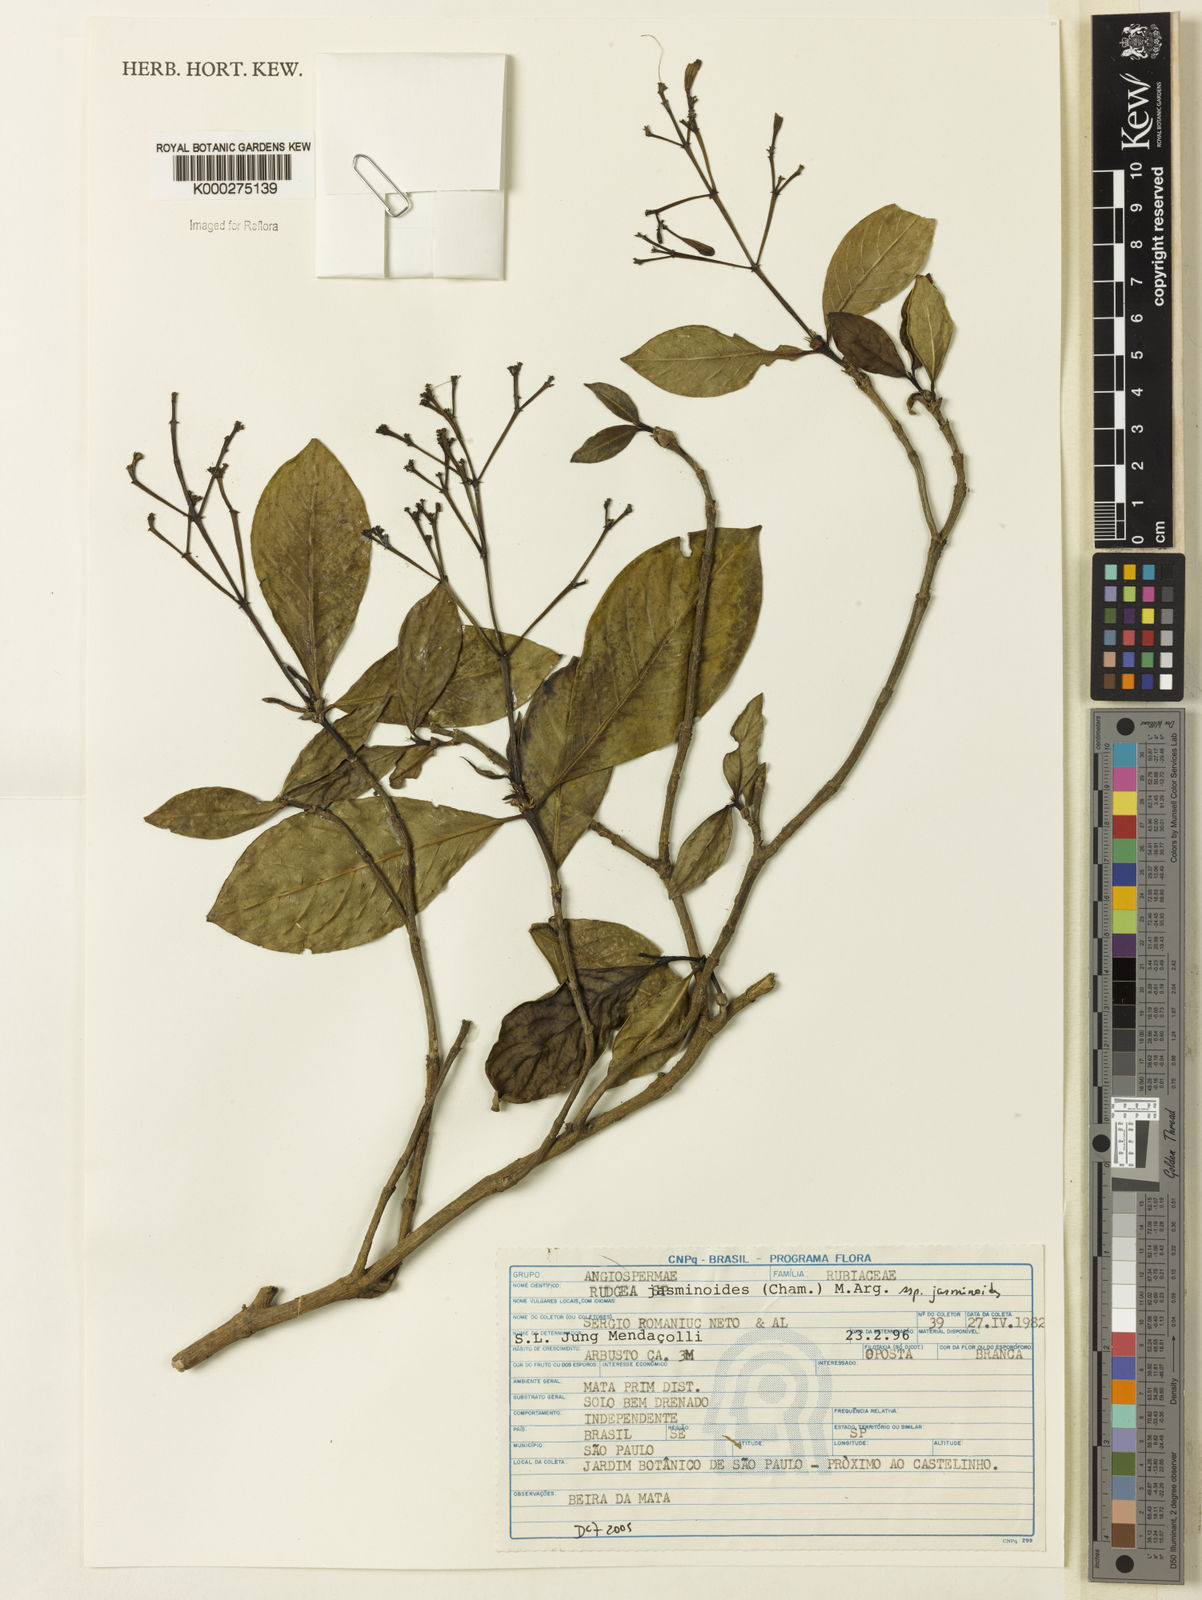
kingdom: Plantae
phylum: Tracheophyta
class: Magnoliopsida
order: Gentianales
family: Rubiaceae
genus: Rudgea
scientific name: Rudgea jasminoides
